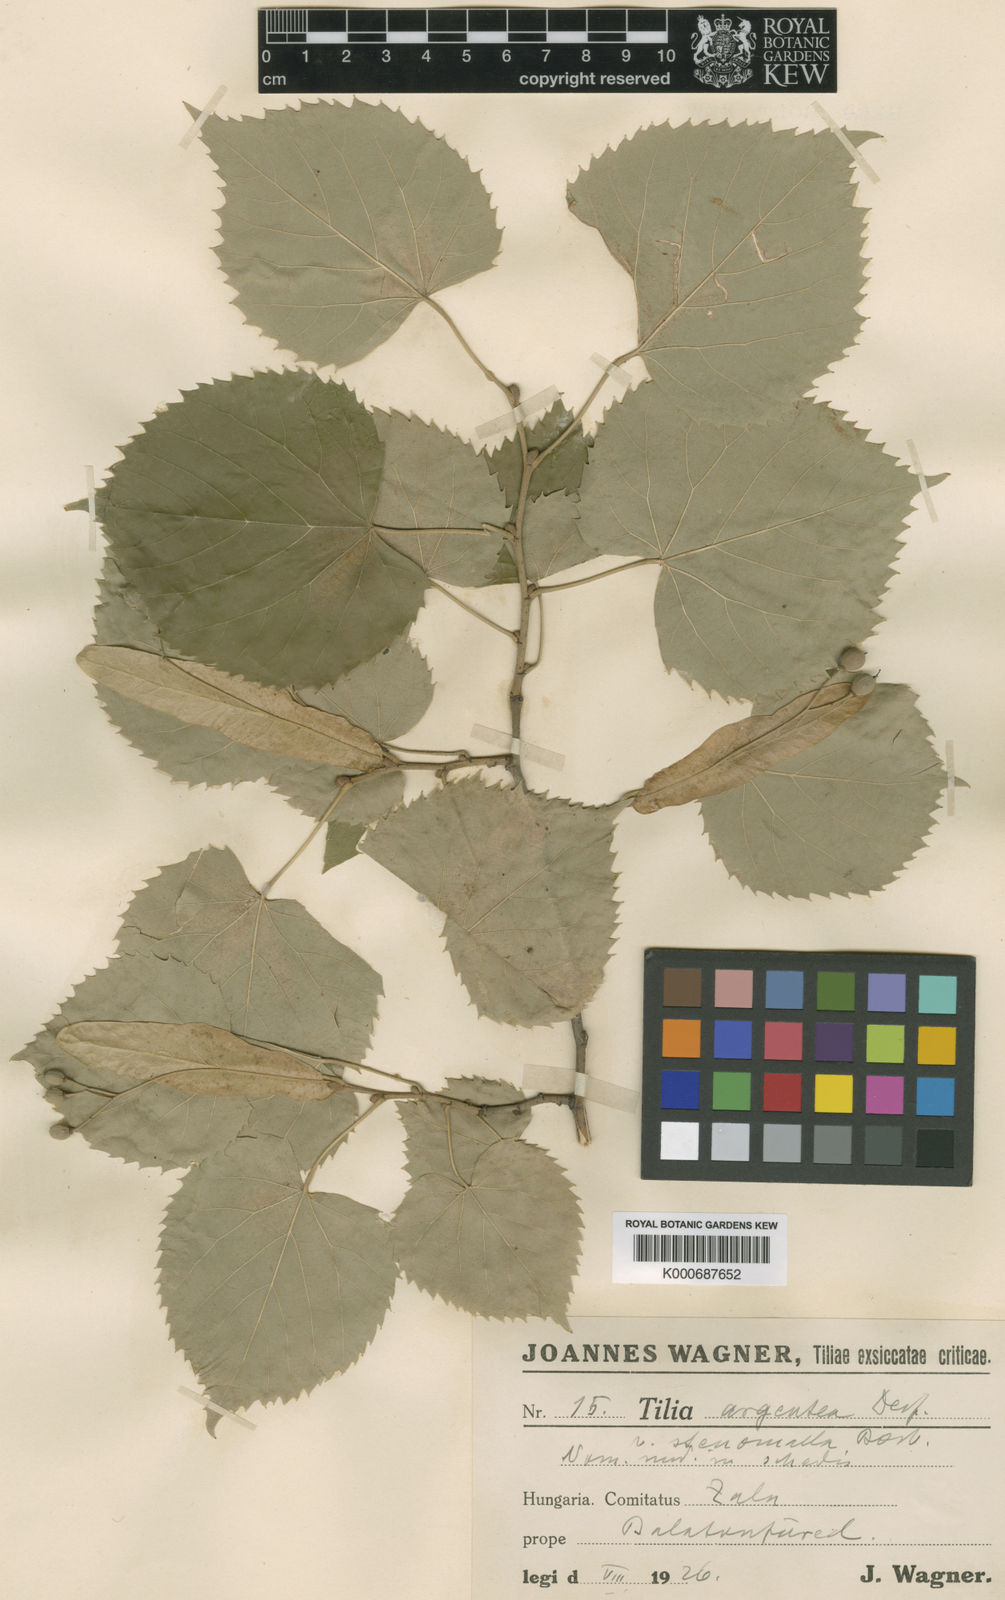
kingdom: Plantae
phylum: Tracheophyta
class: Magnoliopsida
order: Malvales
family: Malvaceae
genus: Tilia
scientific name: Tilia tomentosa
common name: Silver lime
